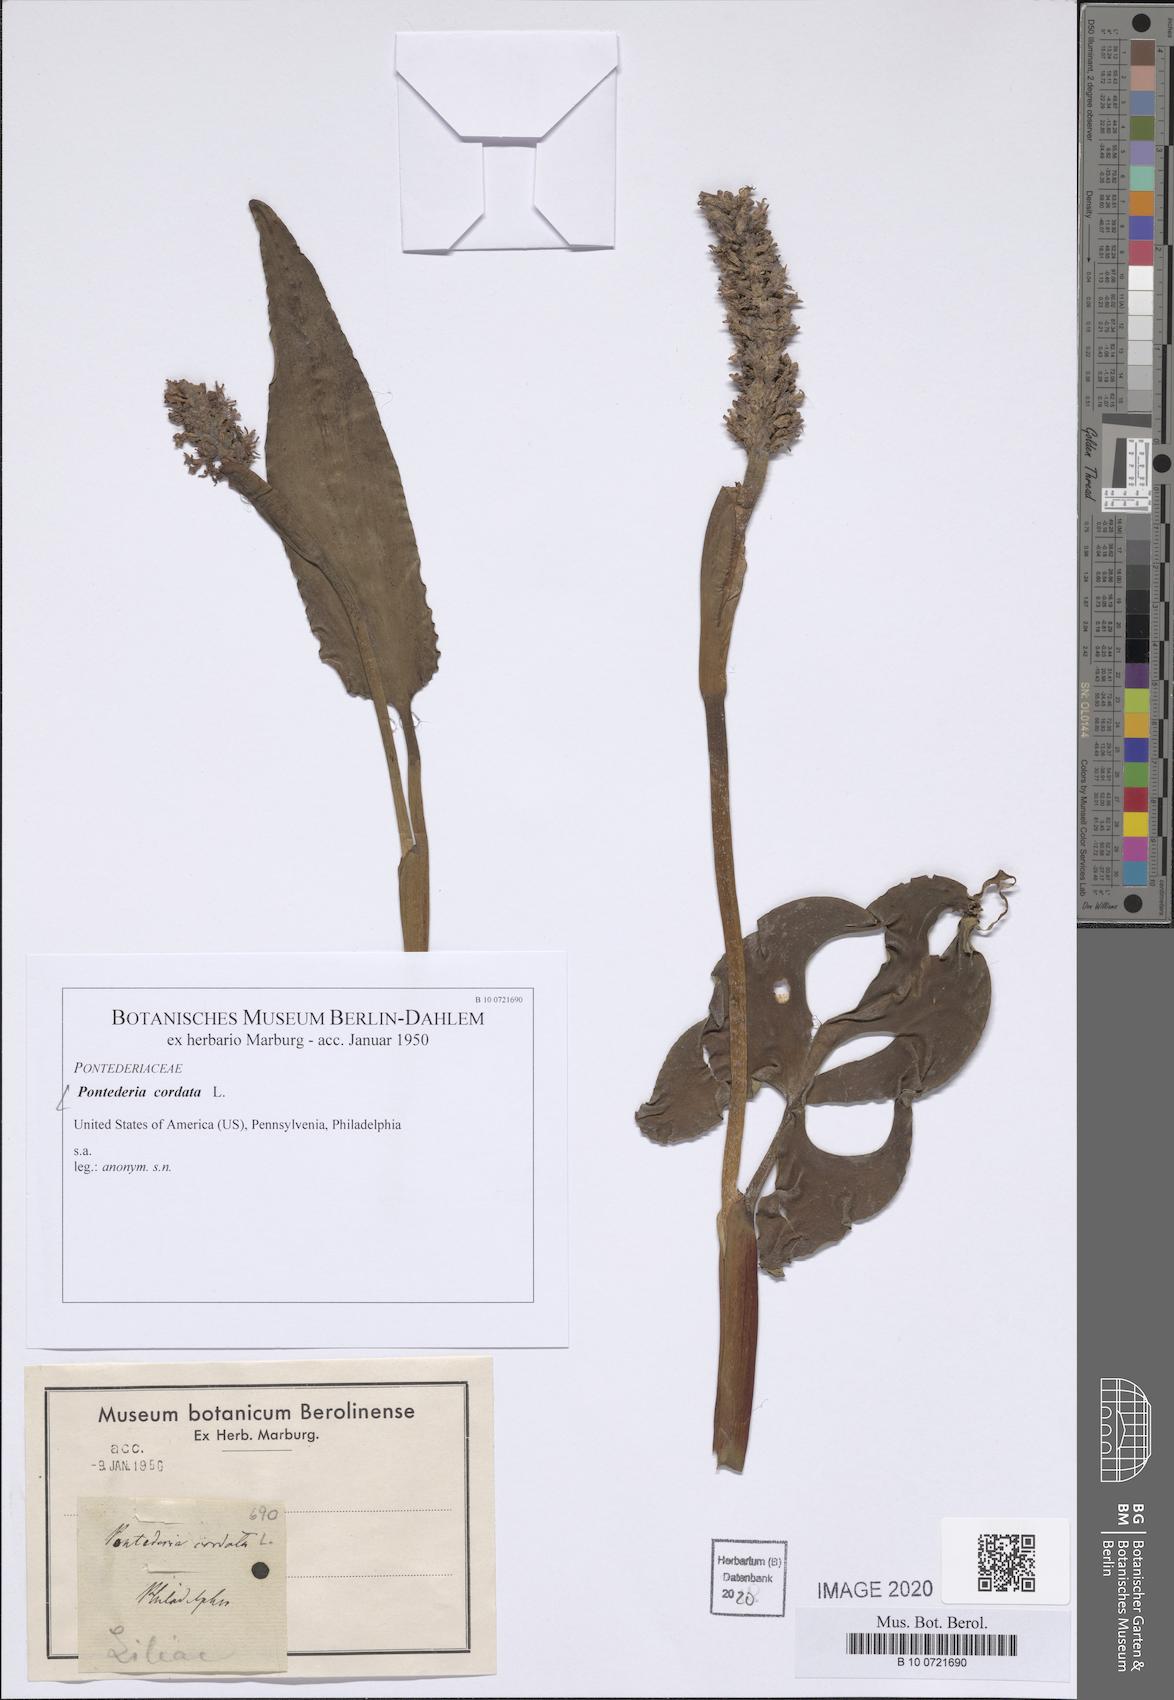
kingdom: Plantae
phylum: Tracheophyta
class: Liliopsida
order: Commelinales
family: Pontederiaceae
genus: Pontederia
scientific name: Pontederia cordata
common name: Pickerelweed
